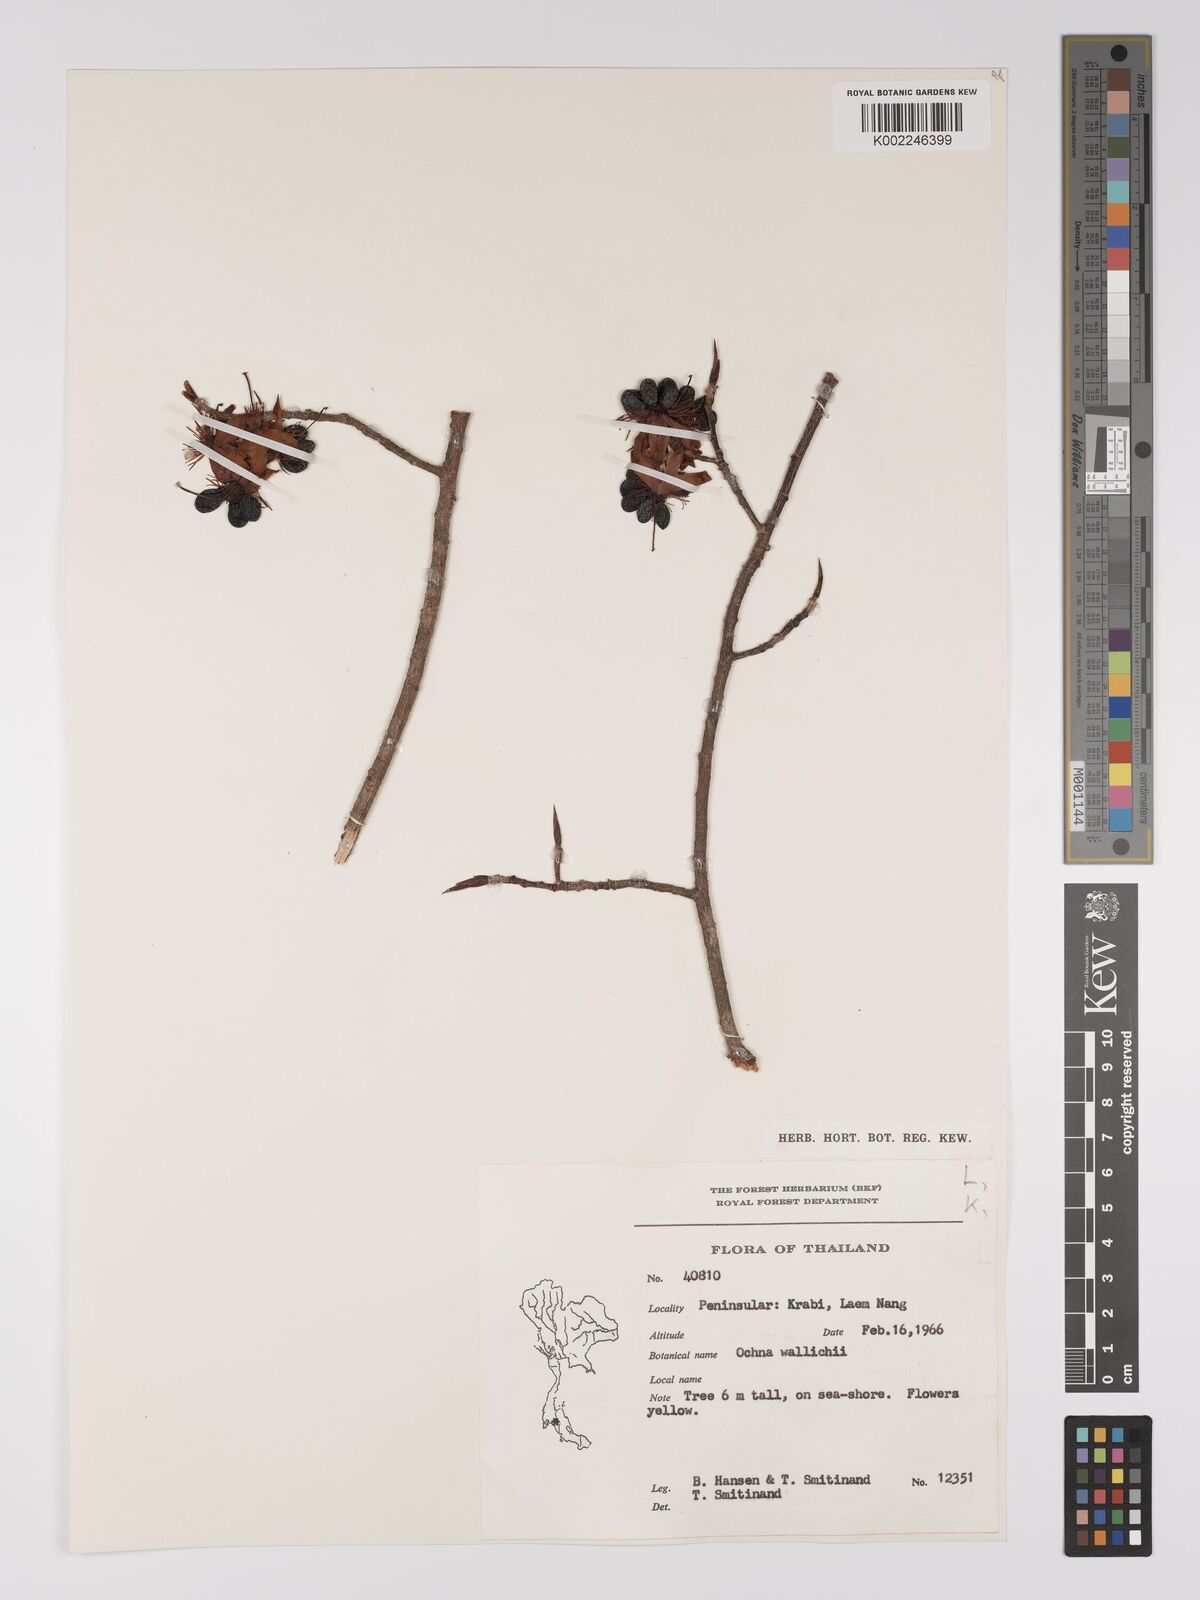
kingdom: Plantae
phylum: Tracheophyta
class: Magnoliopsida
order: Malpighiales
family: Ochnaceae
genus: Ochna
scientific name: Ochna integerrima
